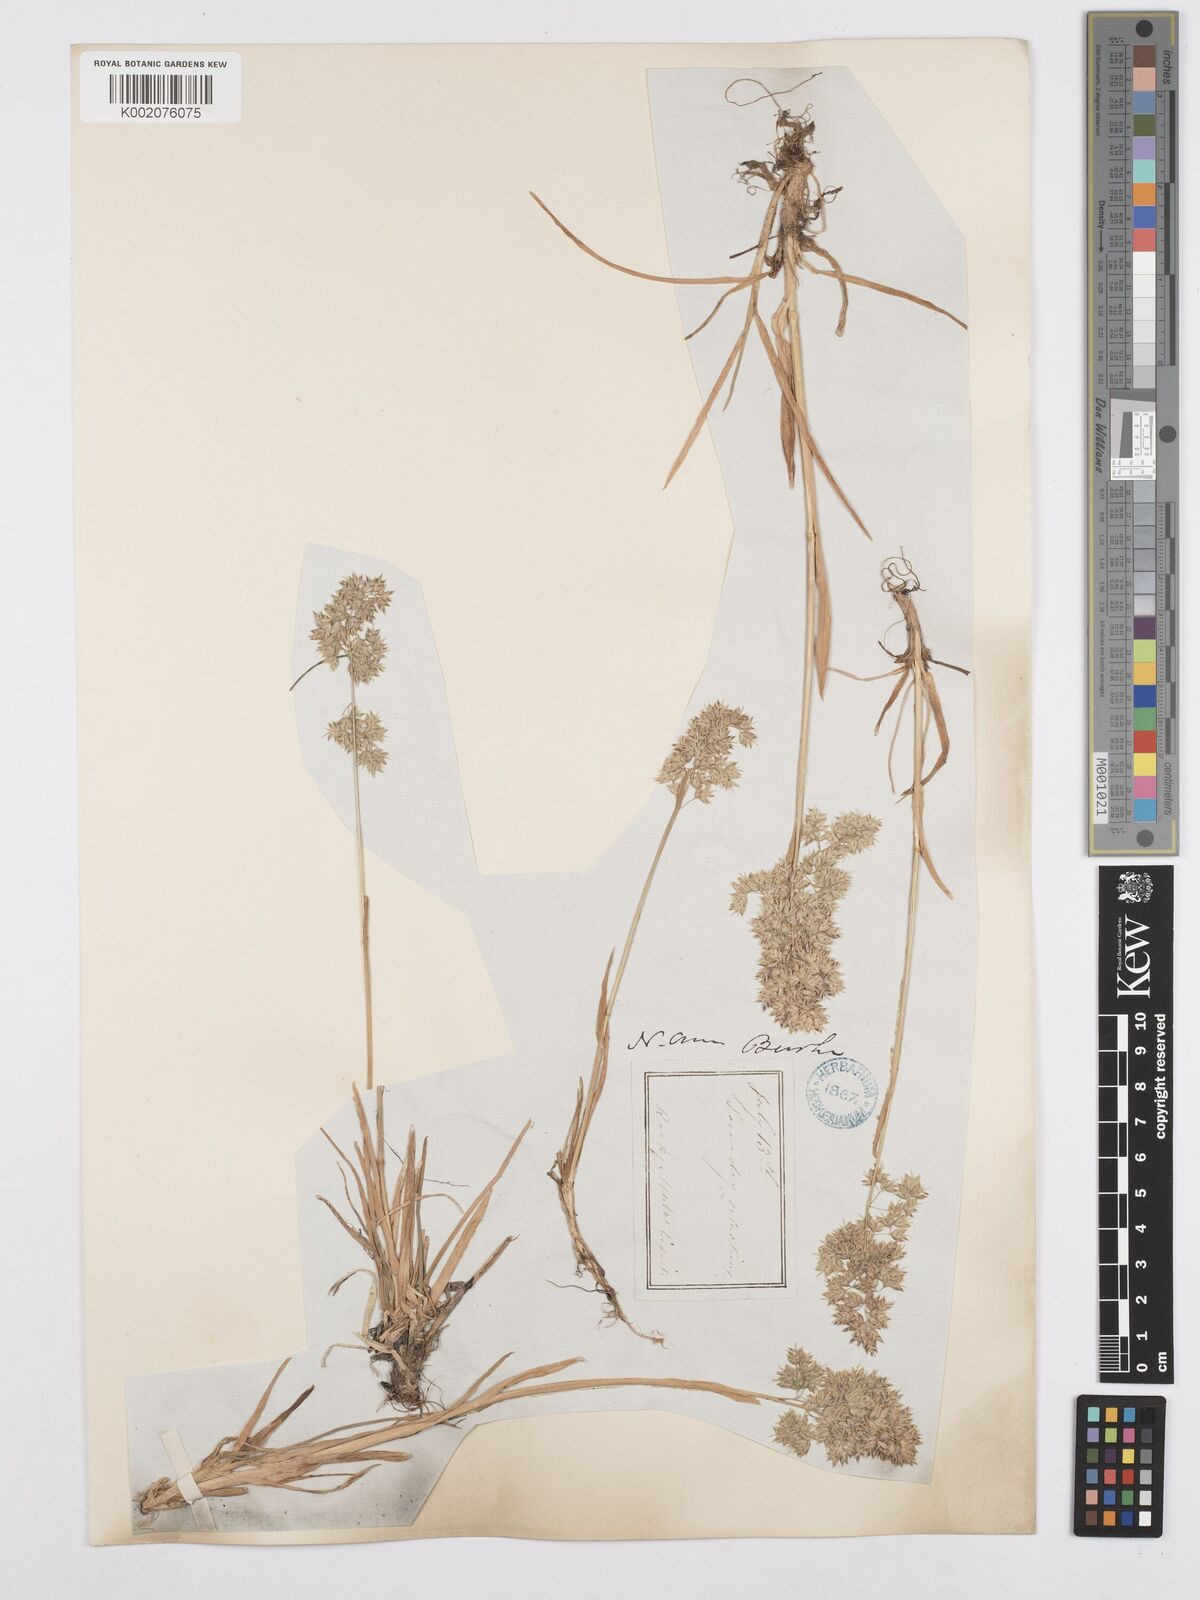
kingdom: Plantae
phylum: Tracheophyta
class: Liliopsida
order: Poales
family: Poaceae
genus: Poa
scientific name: Poa alpina
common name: Alpine bluegrass
